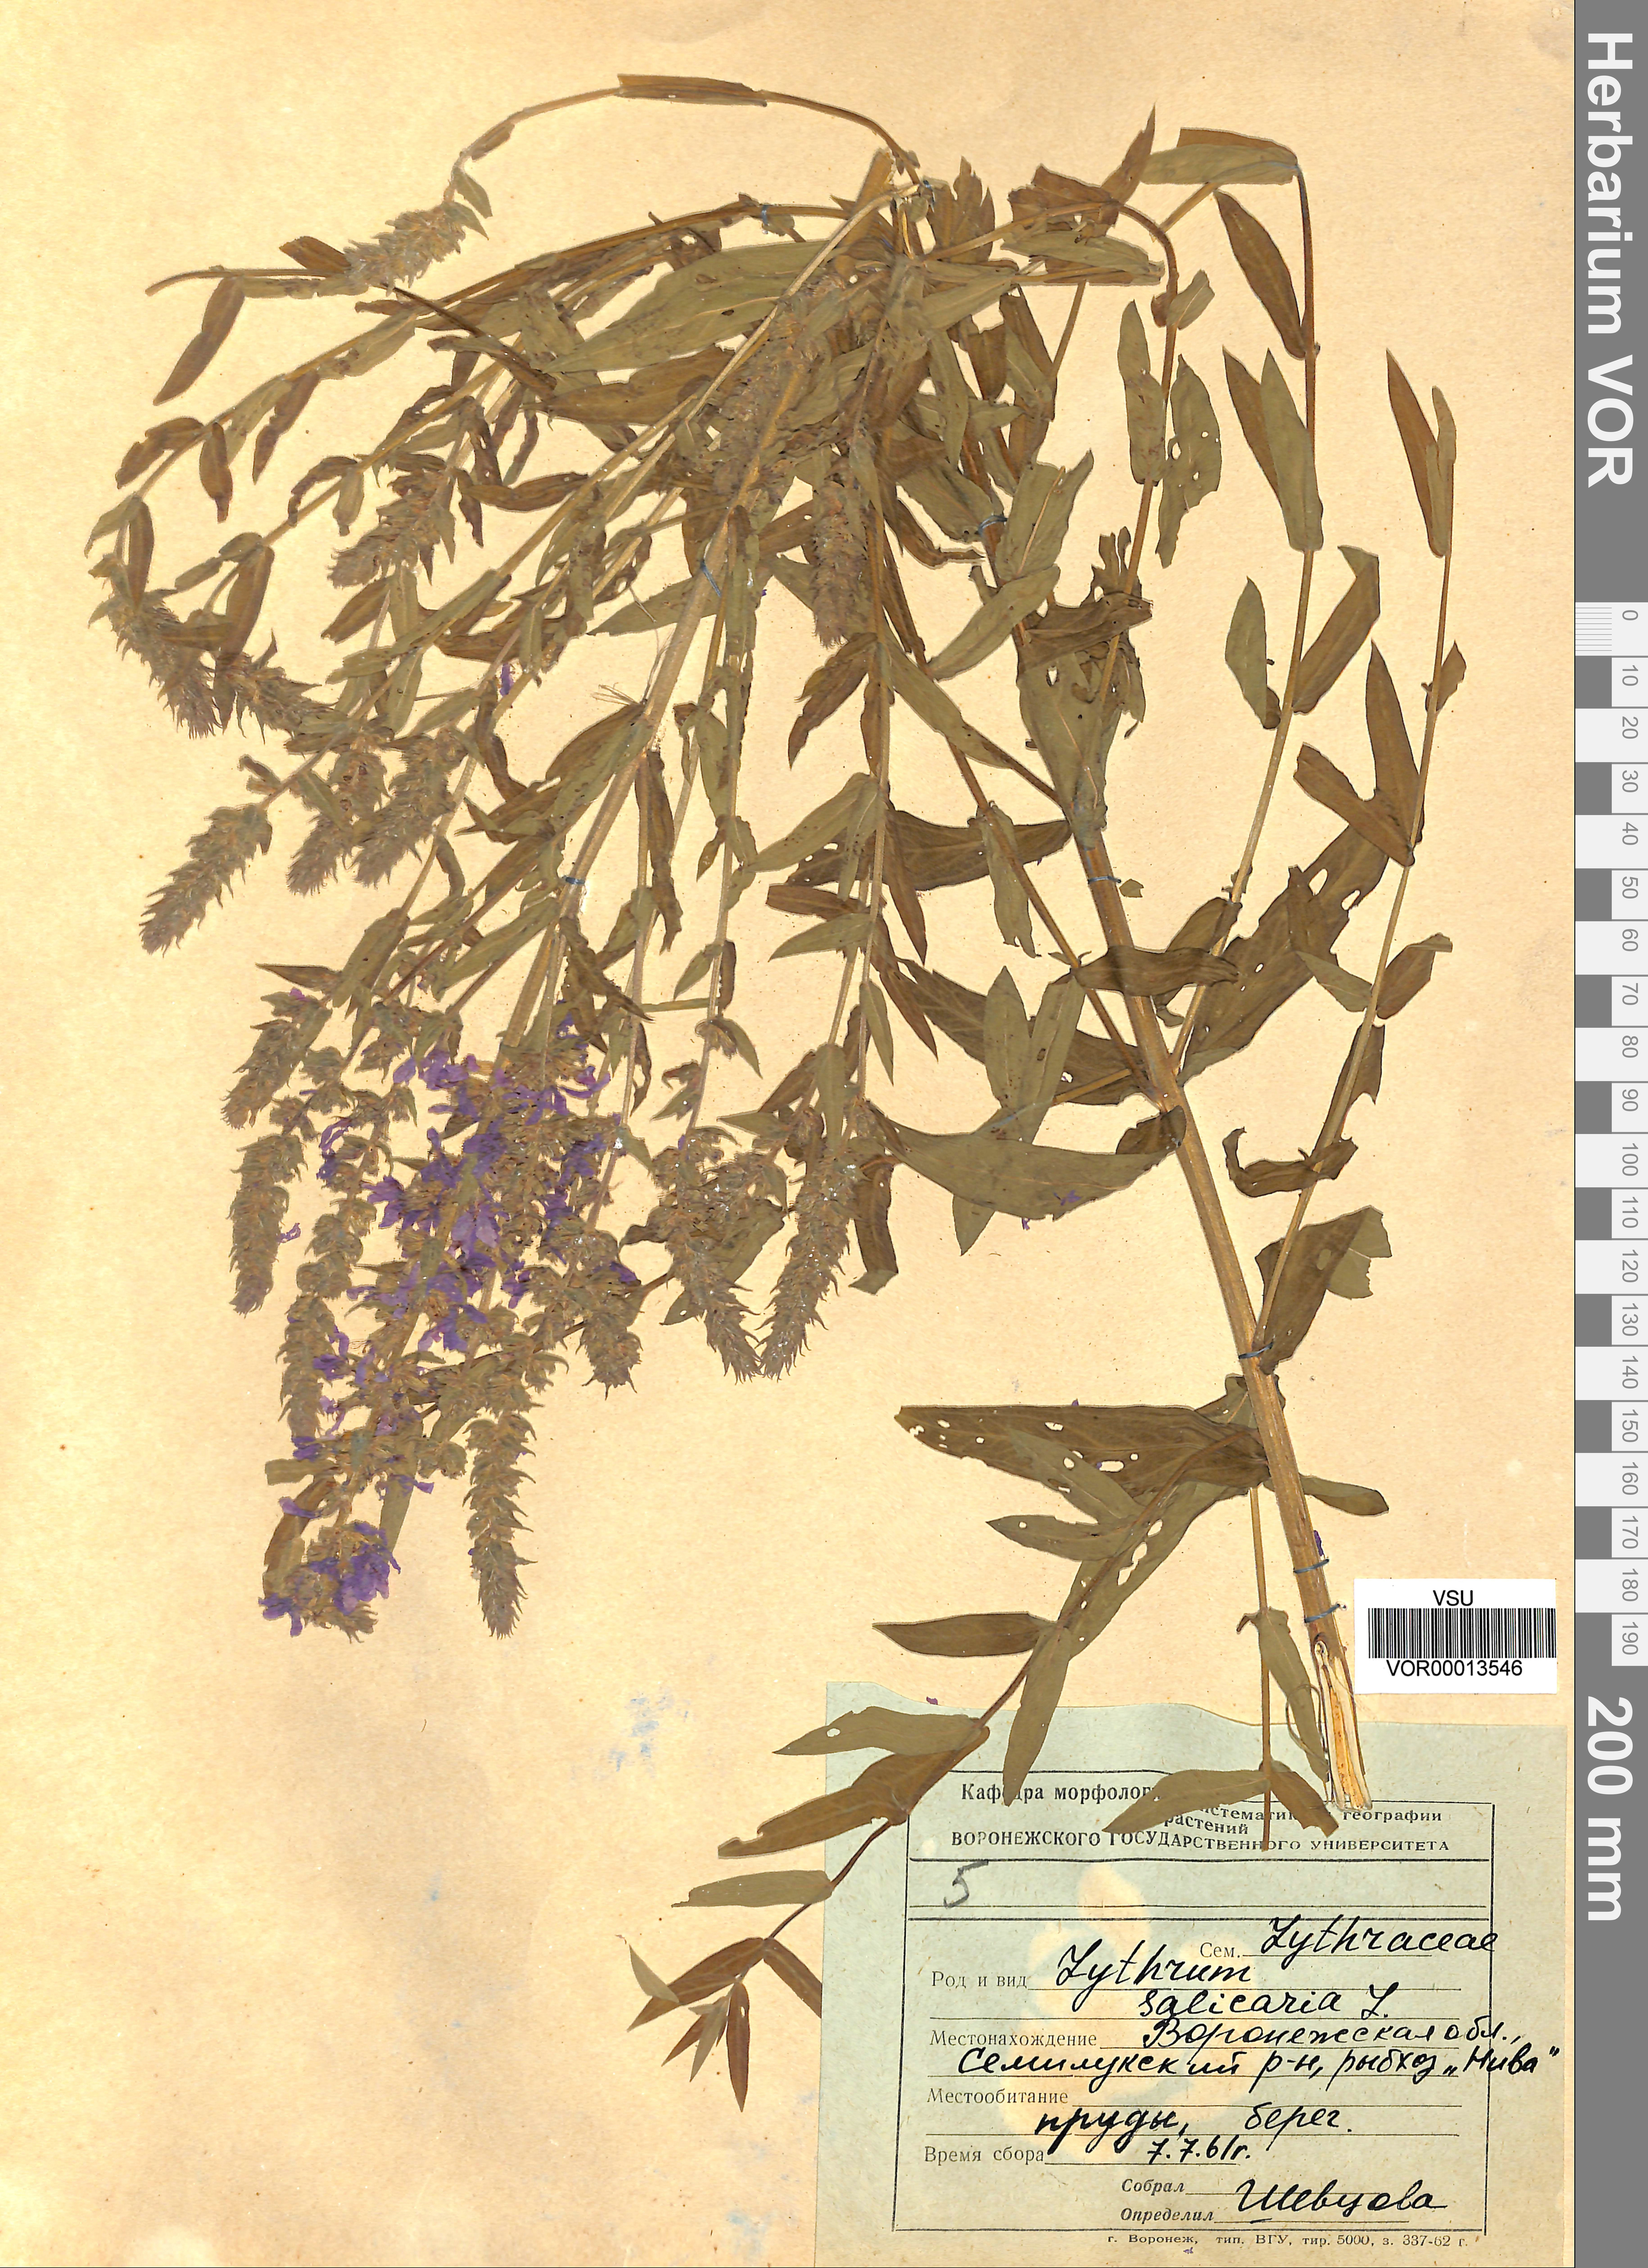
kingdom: Plantae
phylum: Tracheophyta
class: Magnoliopsida
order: Myrtales
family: Lythraceae
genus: Lythrum
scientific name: Lythrum salicaria
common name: Purple loosestrife
